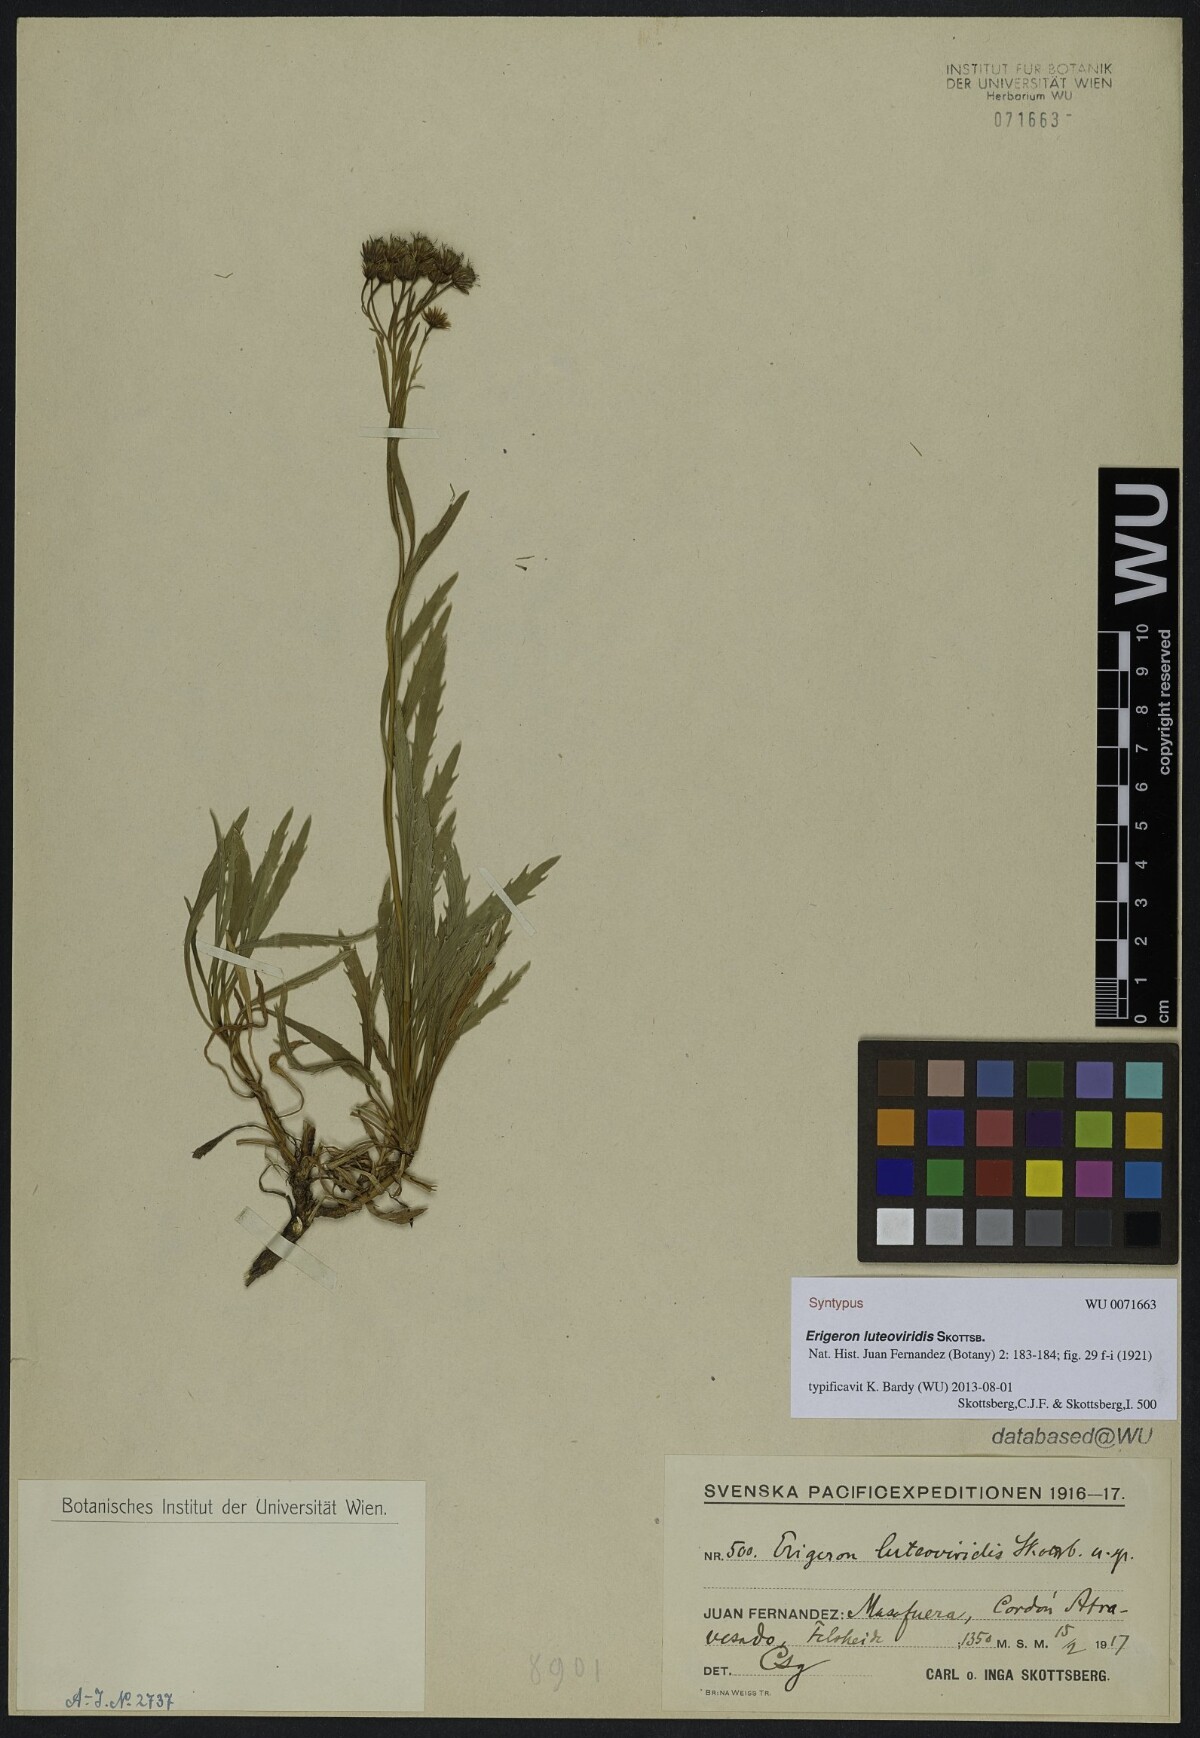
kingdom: Plantae
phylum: Tracheophyta
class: Magnoliopsida
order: Asterales
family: Asteraceae
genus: Erigeron
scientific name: Erigeron luteoviridis
